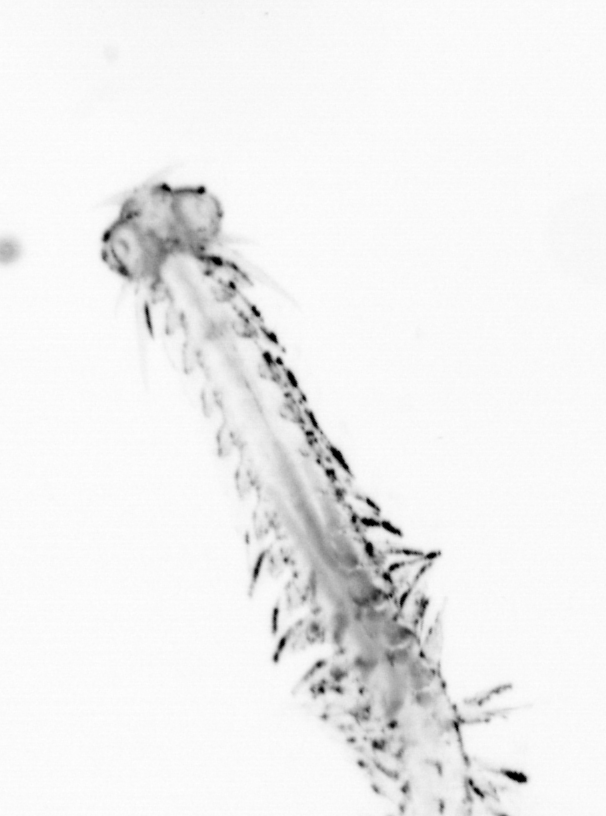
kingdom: Animalia
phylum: Annelida
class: Polychaeta
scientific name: Polychaeta
